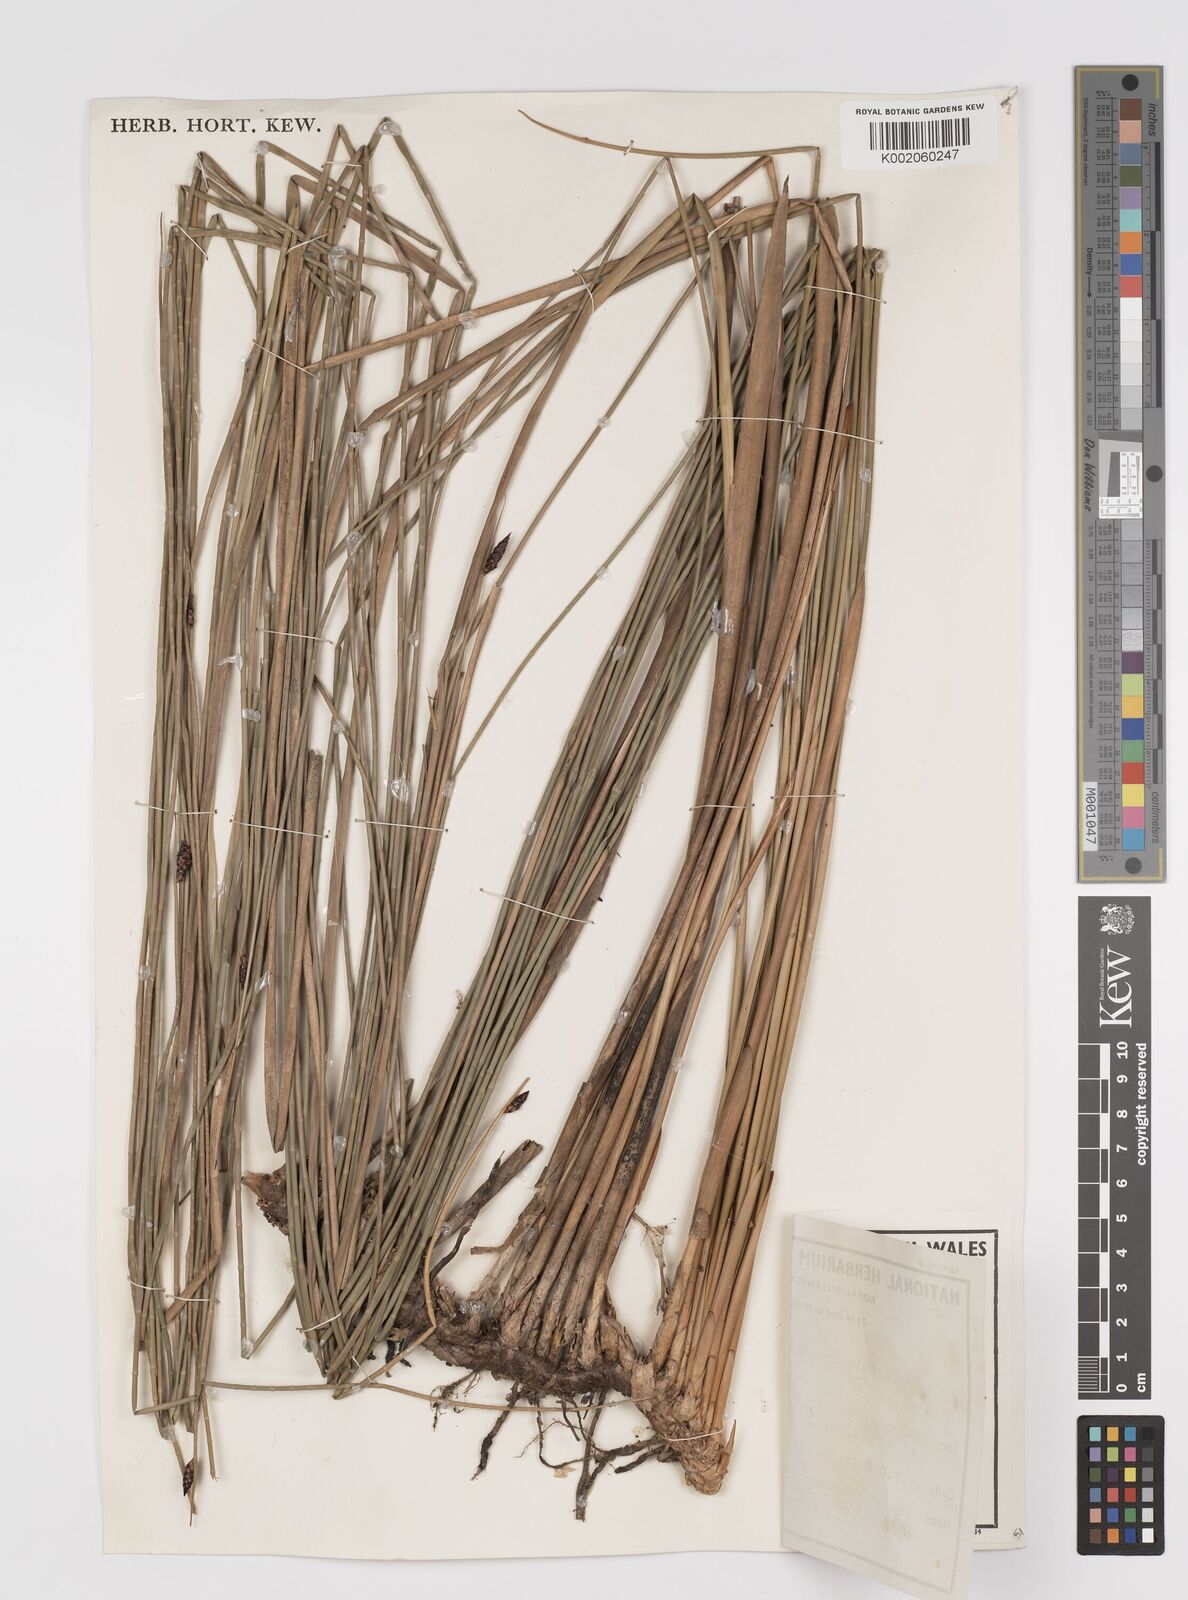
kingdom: Plantae
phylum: Tracheophyta
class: Liliopsida
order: Poales
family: Cyperaceae
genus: Lepironia
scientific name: Lepironia articulata
